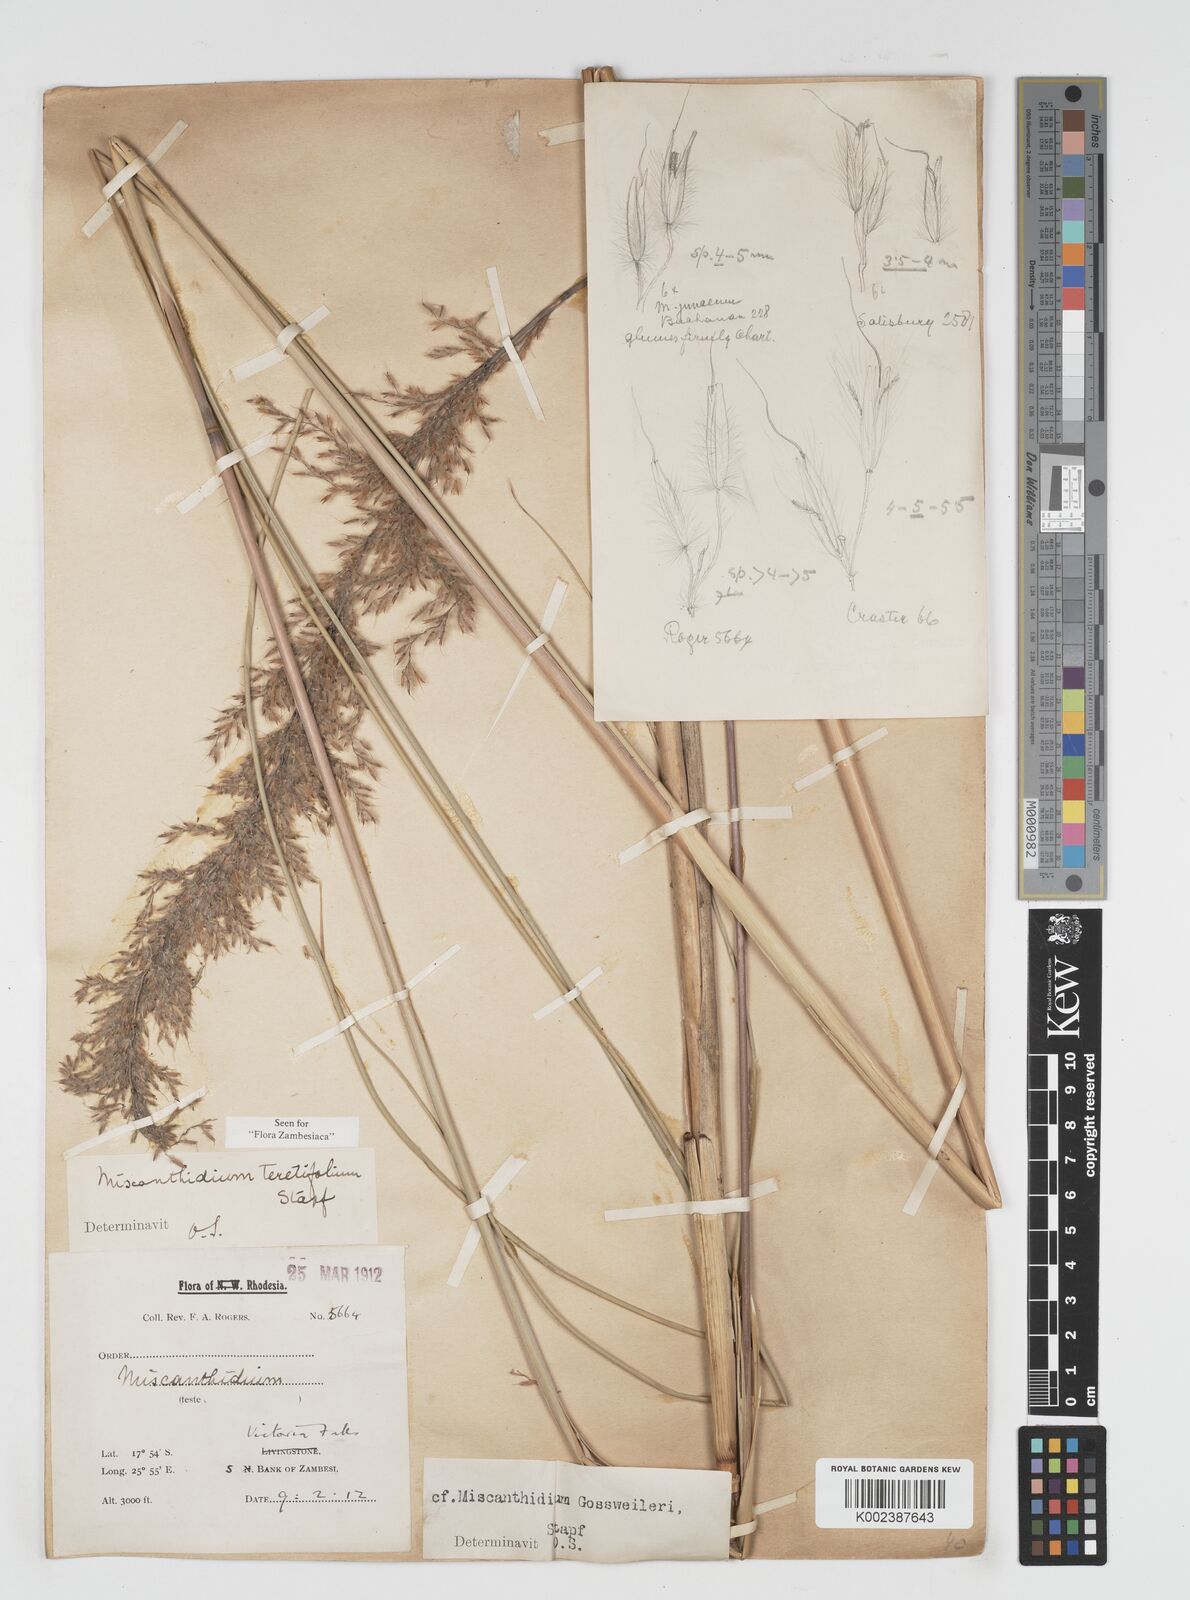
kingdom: Plantae
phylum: Tracheophyta
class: Liliopsida
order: Poales
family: Poaceae
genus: Miscanthidium
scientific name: Miscanthidium junceum
